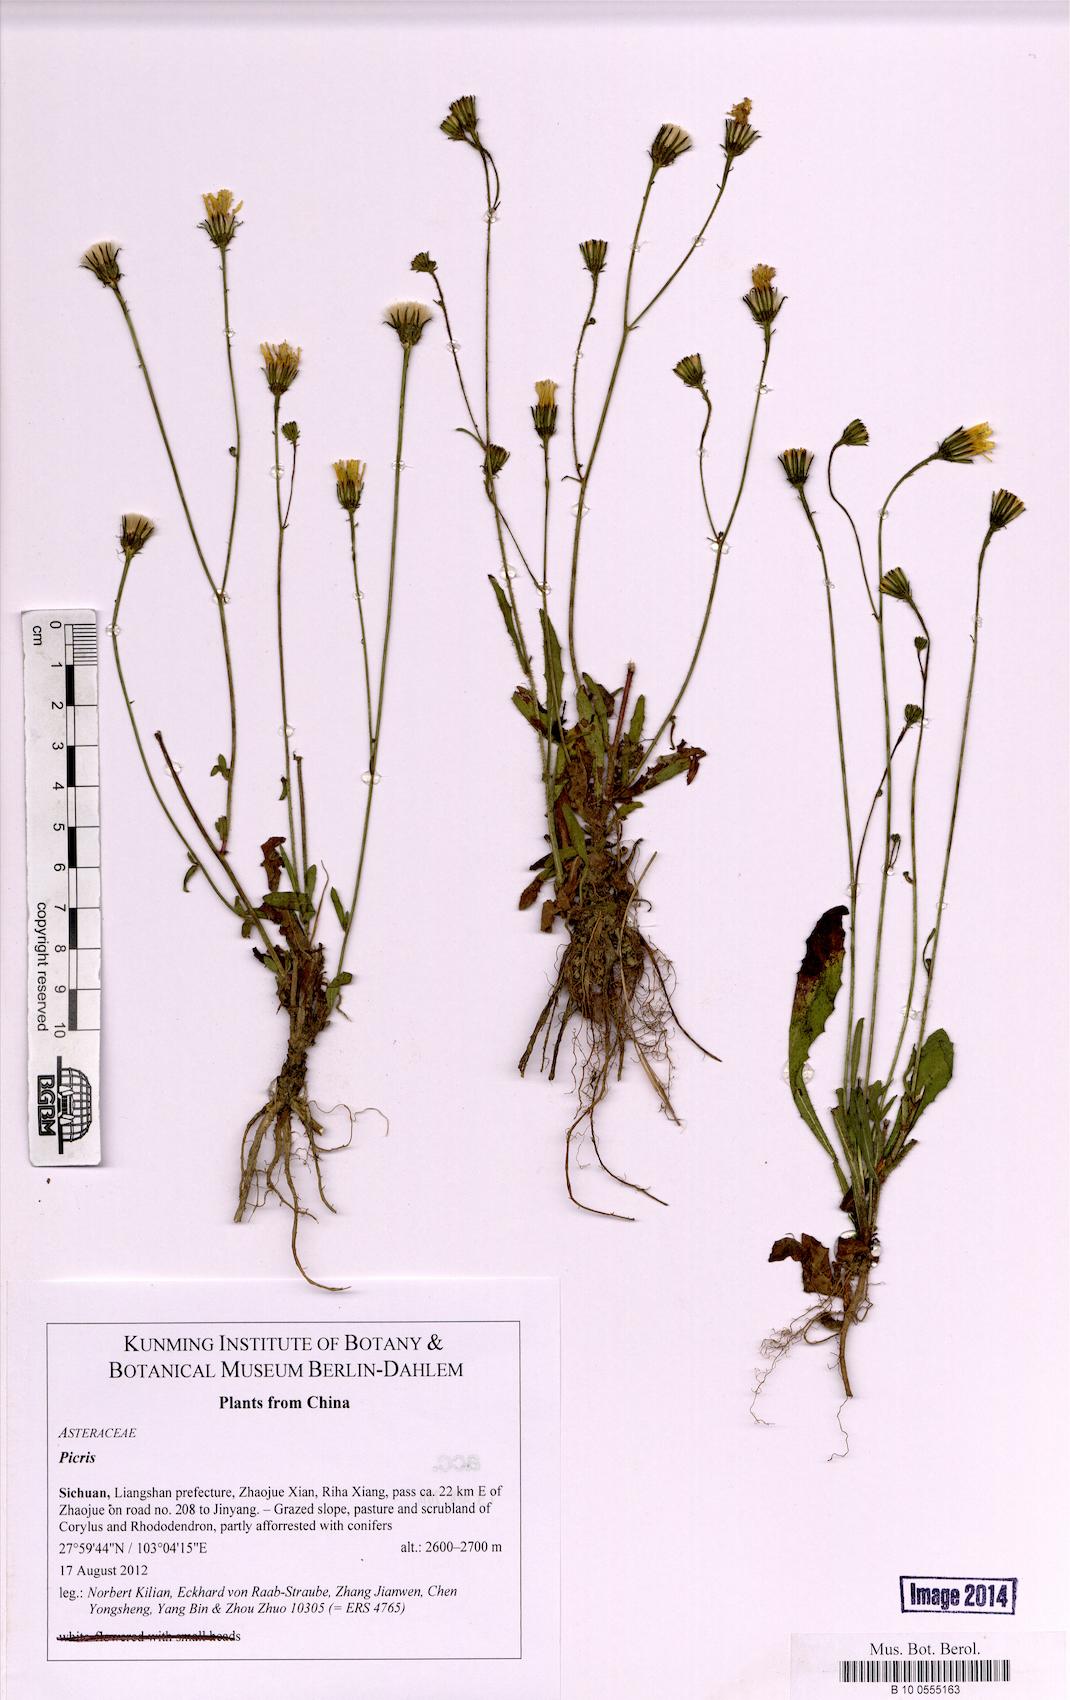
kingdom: Plantae
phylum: Tracheophyta
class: Magnoliopsida
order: Asterales
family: Asteraceae
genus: Picris
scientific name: Picris
